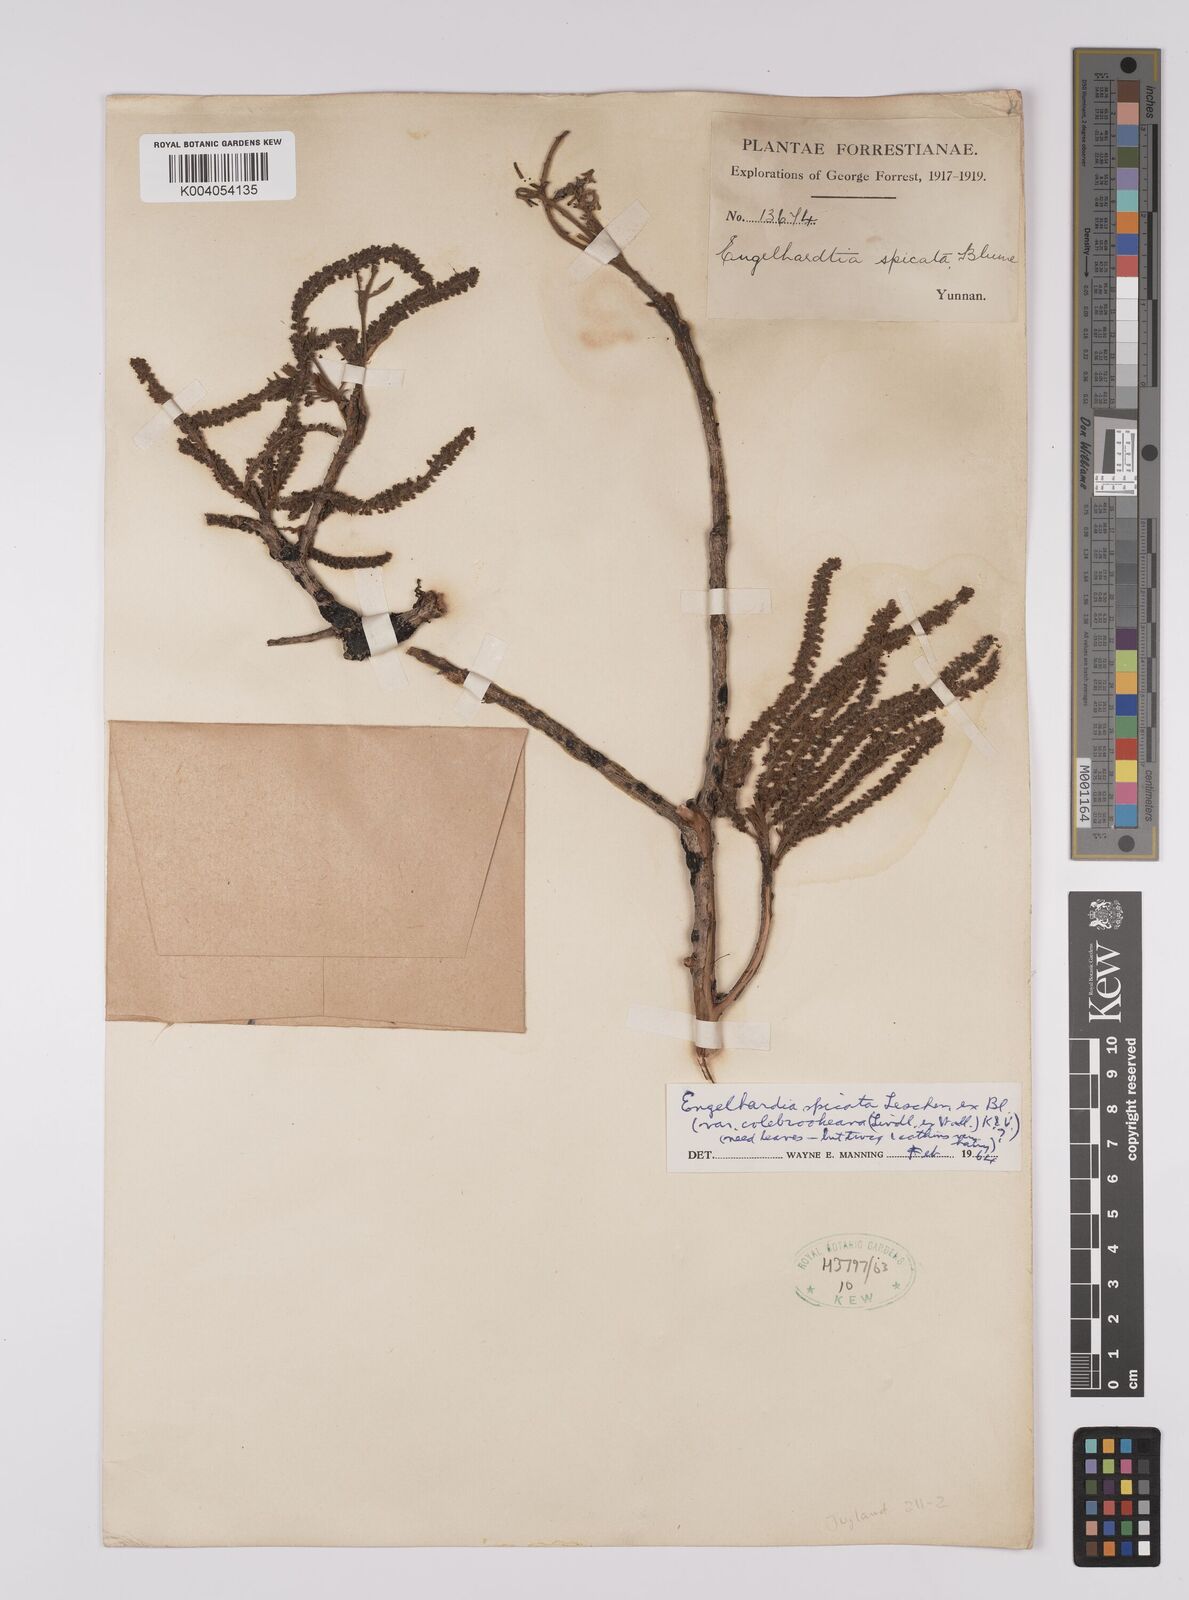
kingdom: Plantae
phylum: Tracheophyta
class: Magnoliopsida
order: Fagales
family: Juglandaceae
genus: Engelhardia
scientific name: Engelhardia spicata
